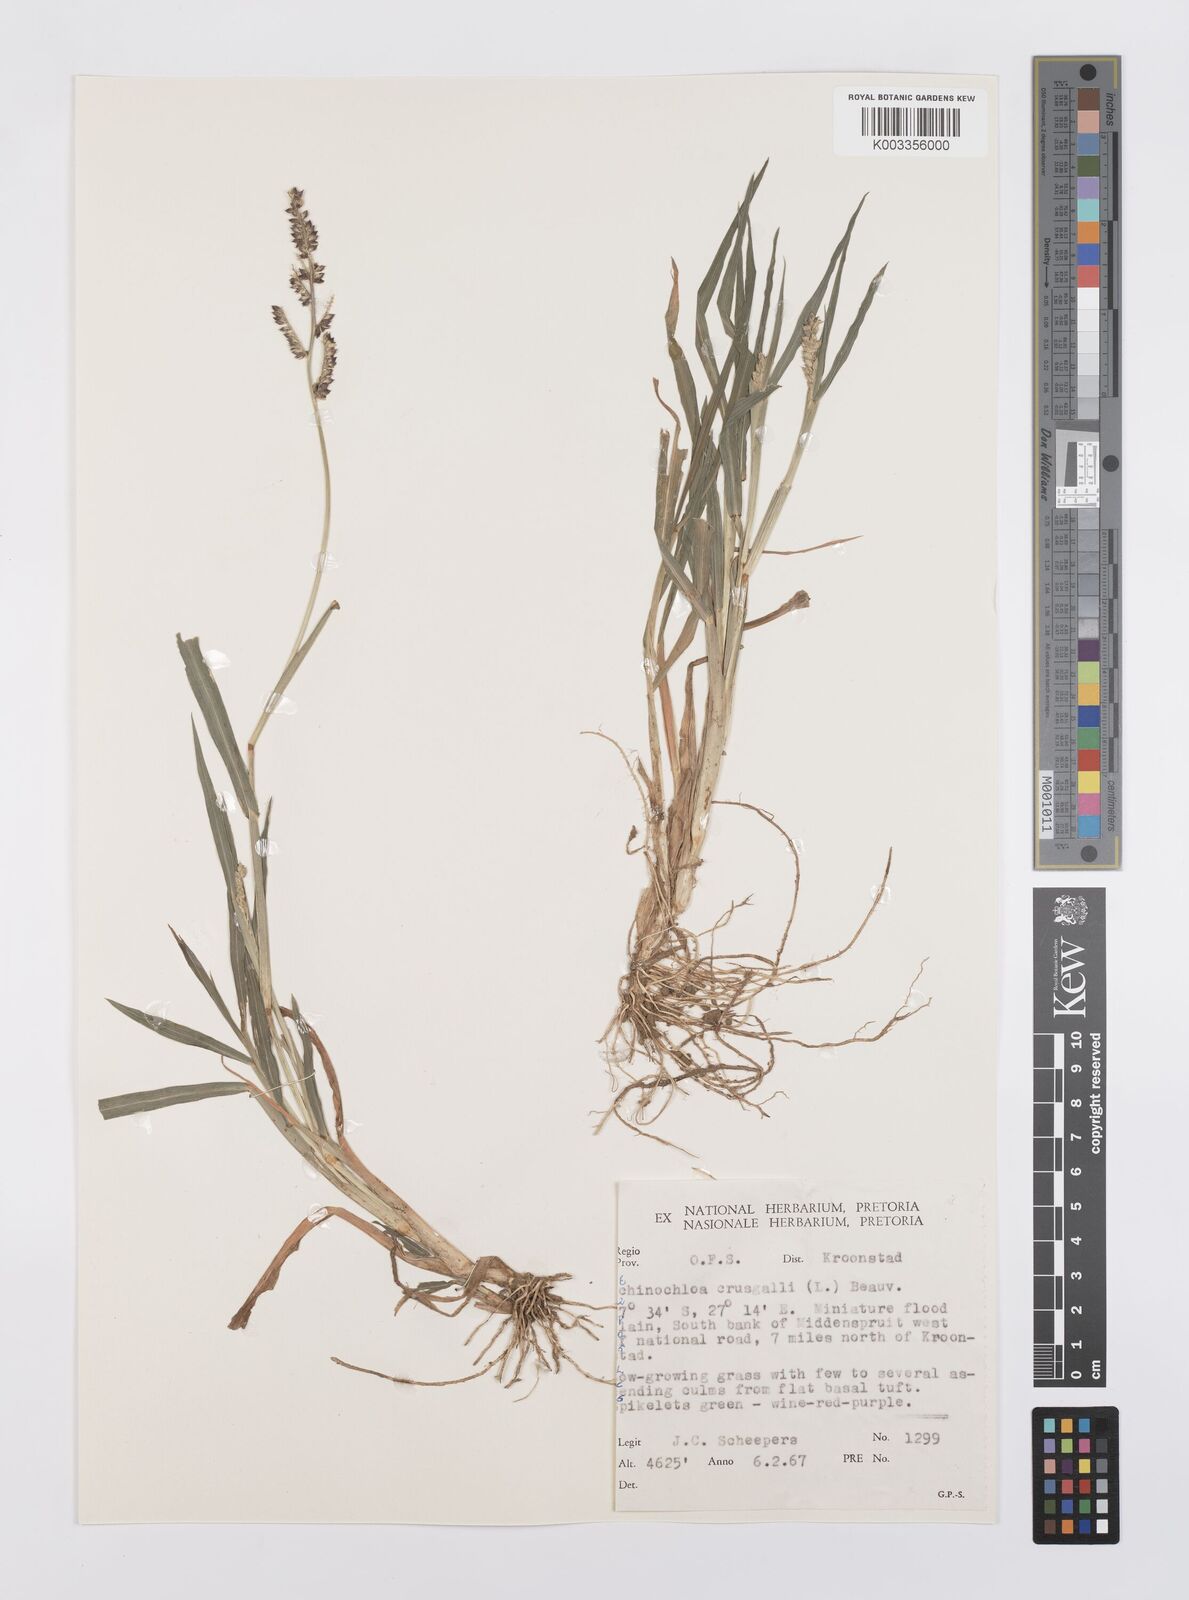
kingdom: Plantae
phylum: Tracheophyta
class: Liliopsida
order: Poales
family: Poaceae
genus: Echinochloa
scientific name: Echinochloa crus-galli
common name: Cockspur
